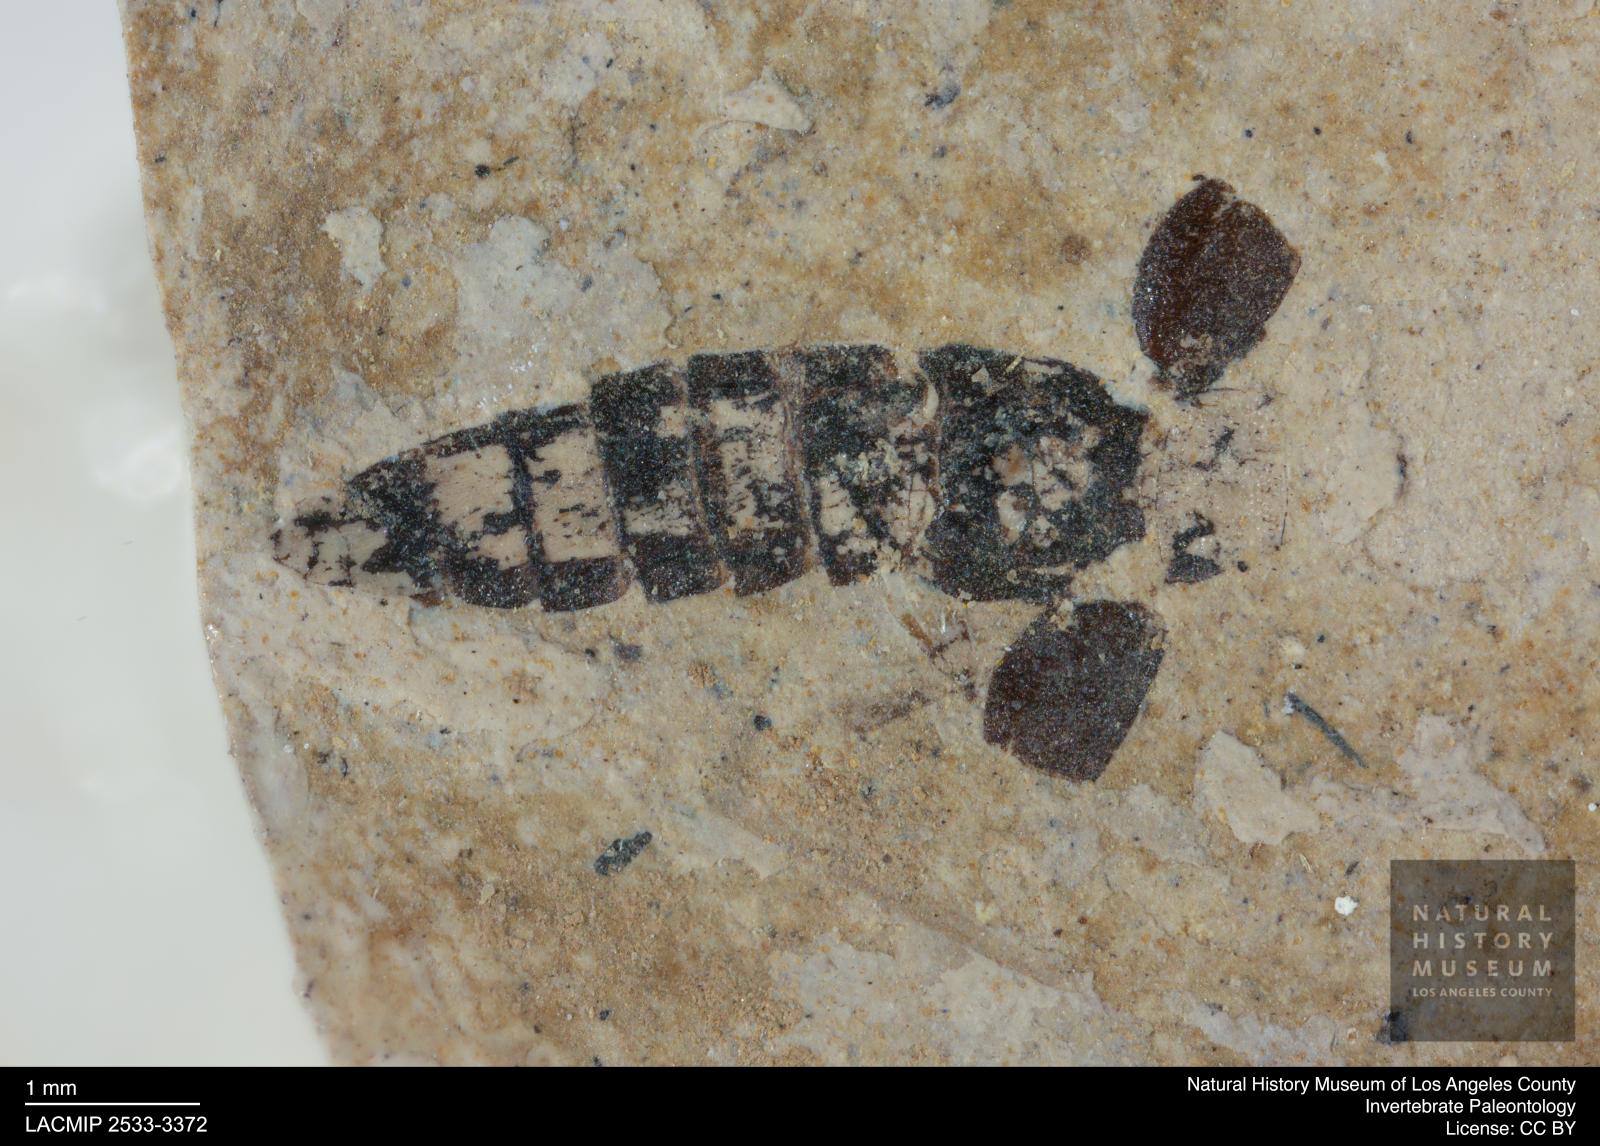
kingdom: Animalia
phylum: Arthropoda
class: Insecta
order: Coleoptera
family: Staphylinidae
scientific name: Staphylinidae
